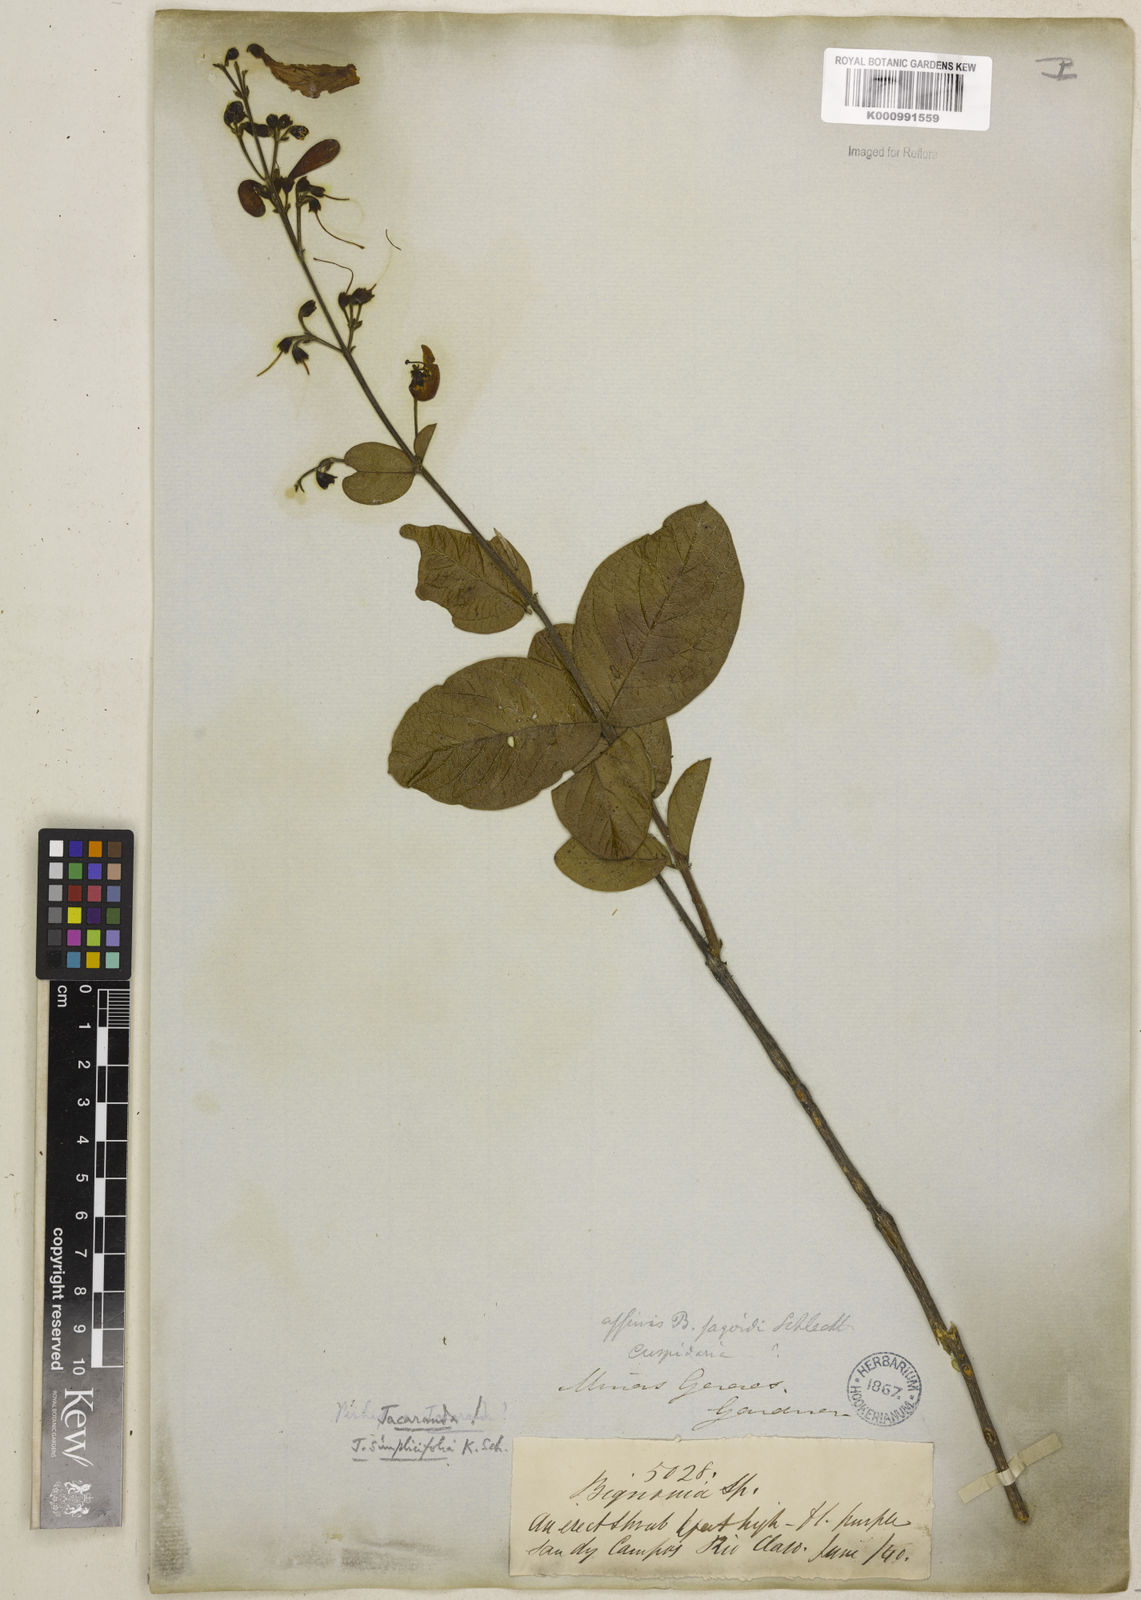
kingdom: Plantae
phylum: Tracheophyta
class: Magnoliopsida
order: Lamiales
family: Bignoniaceae
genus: Jacaranda
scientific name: Jacaranda simplicifolia
